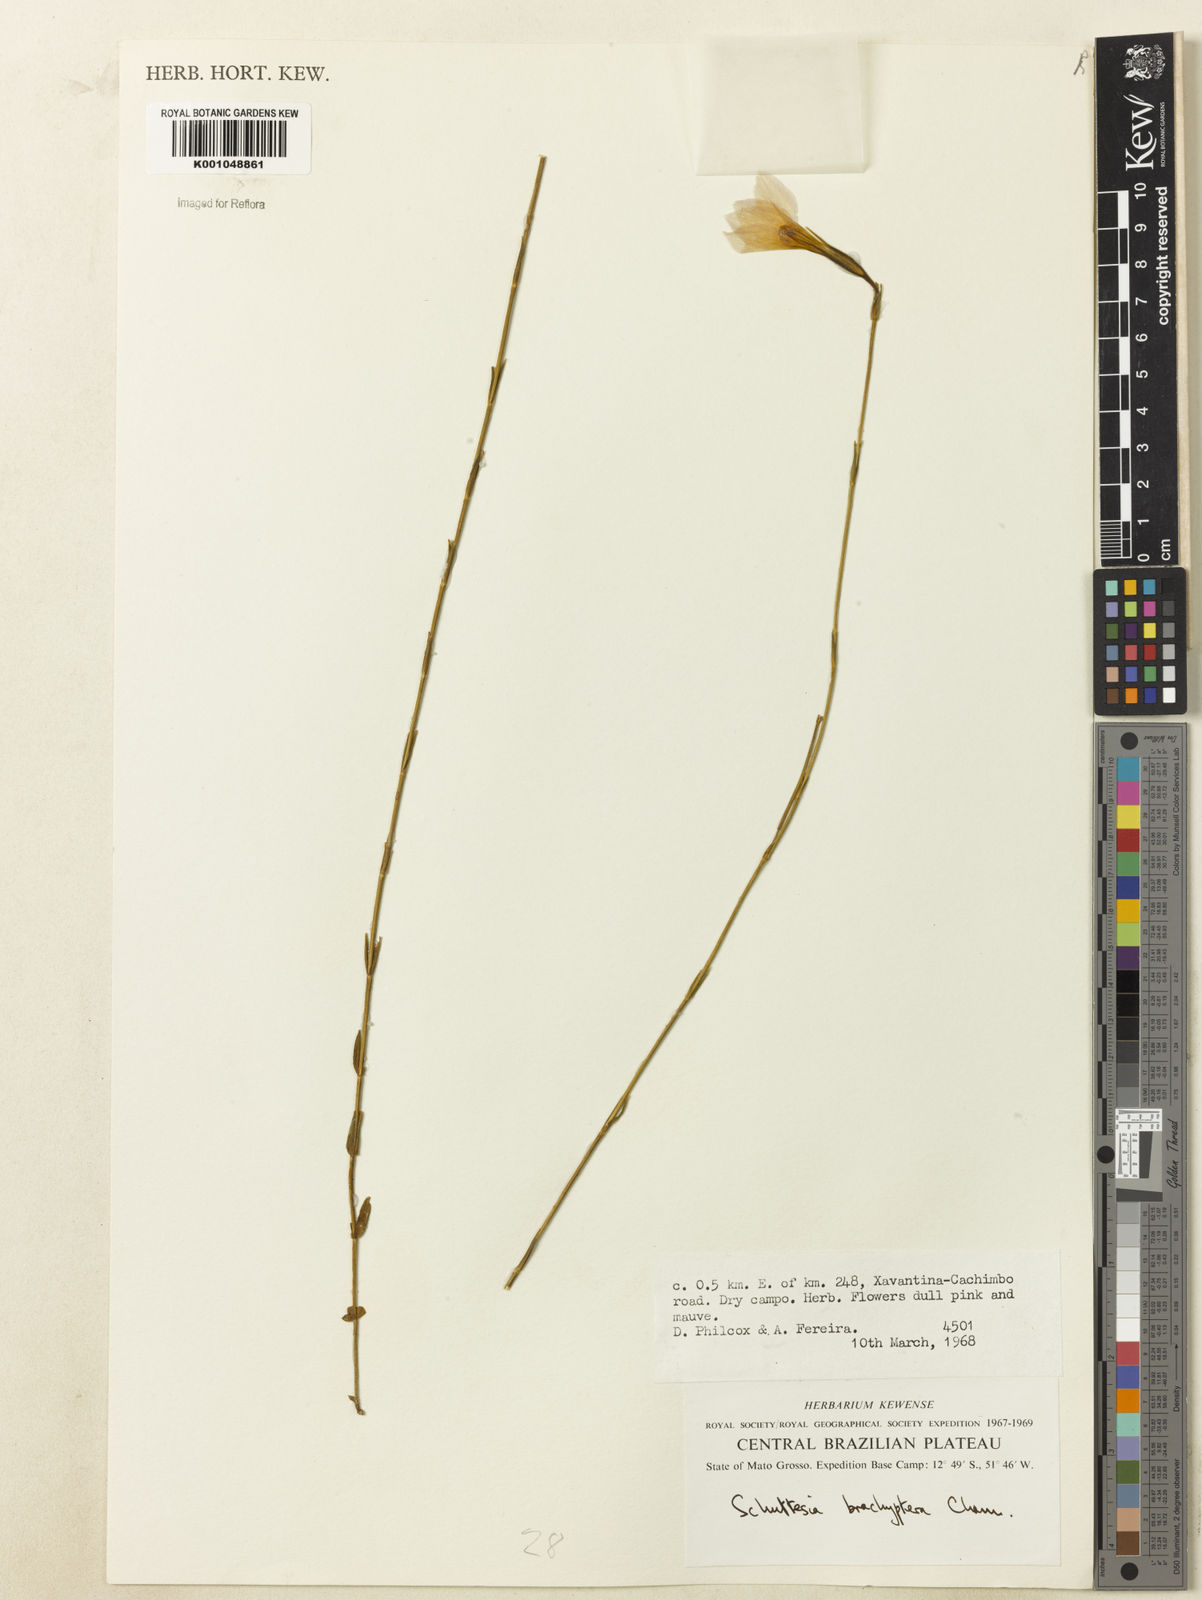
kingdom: Plantae
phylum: Tracheophyta
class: Magnoliopsida
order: Gentianales
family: Gentianaceae
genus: Schultesia
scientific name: Schultesia brachyptera
